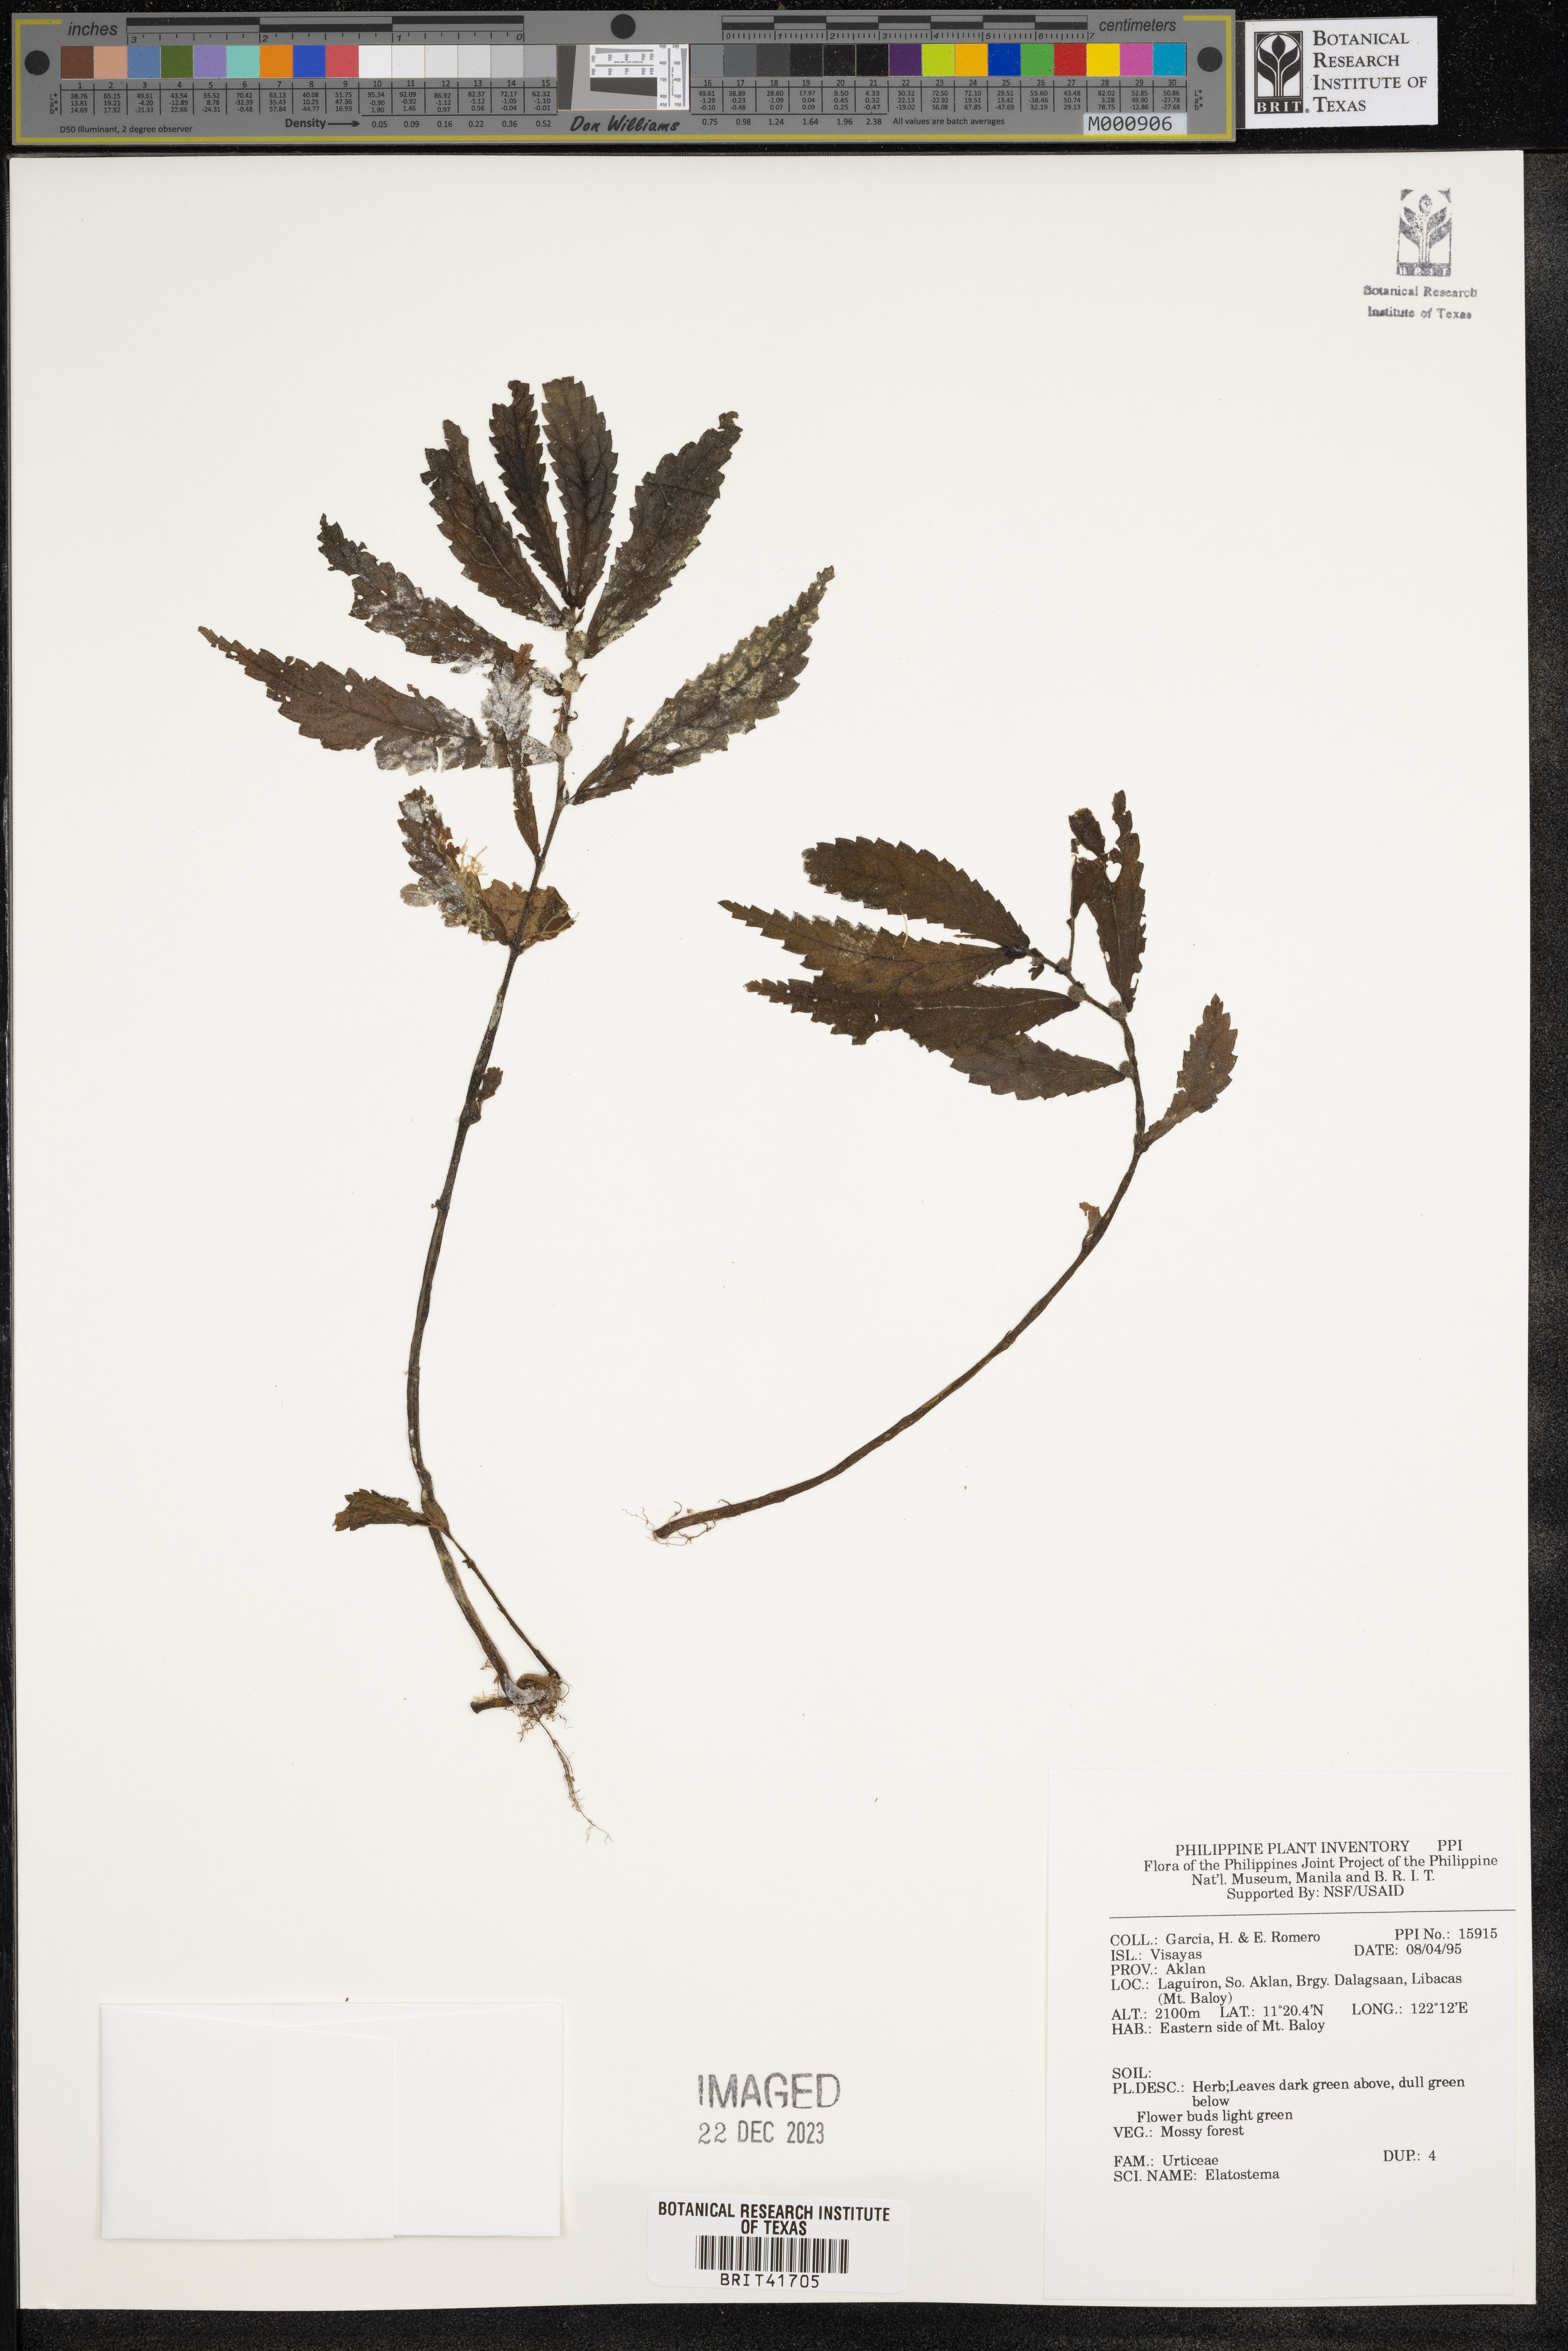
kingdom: Plantae
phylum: Tracheophyta
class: Magnoliopsida
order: Rosales
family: Urticaceae
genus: Elatostema
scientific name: Elatostema
